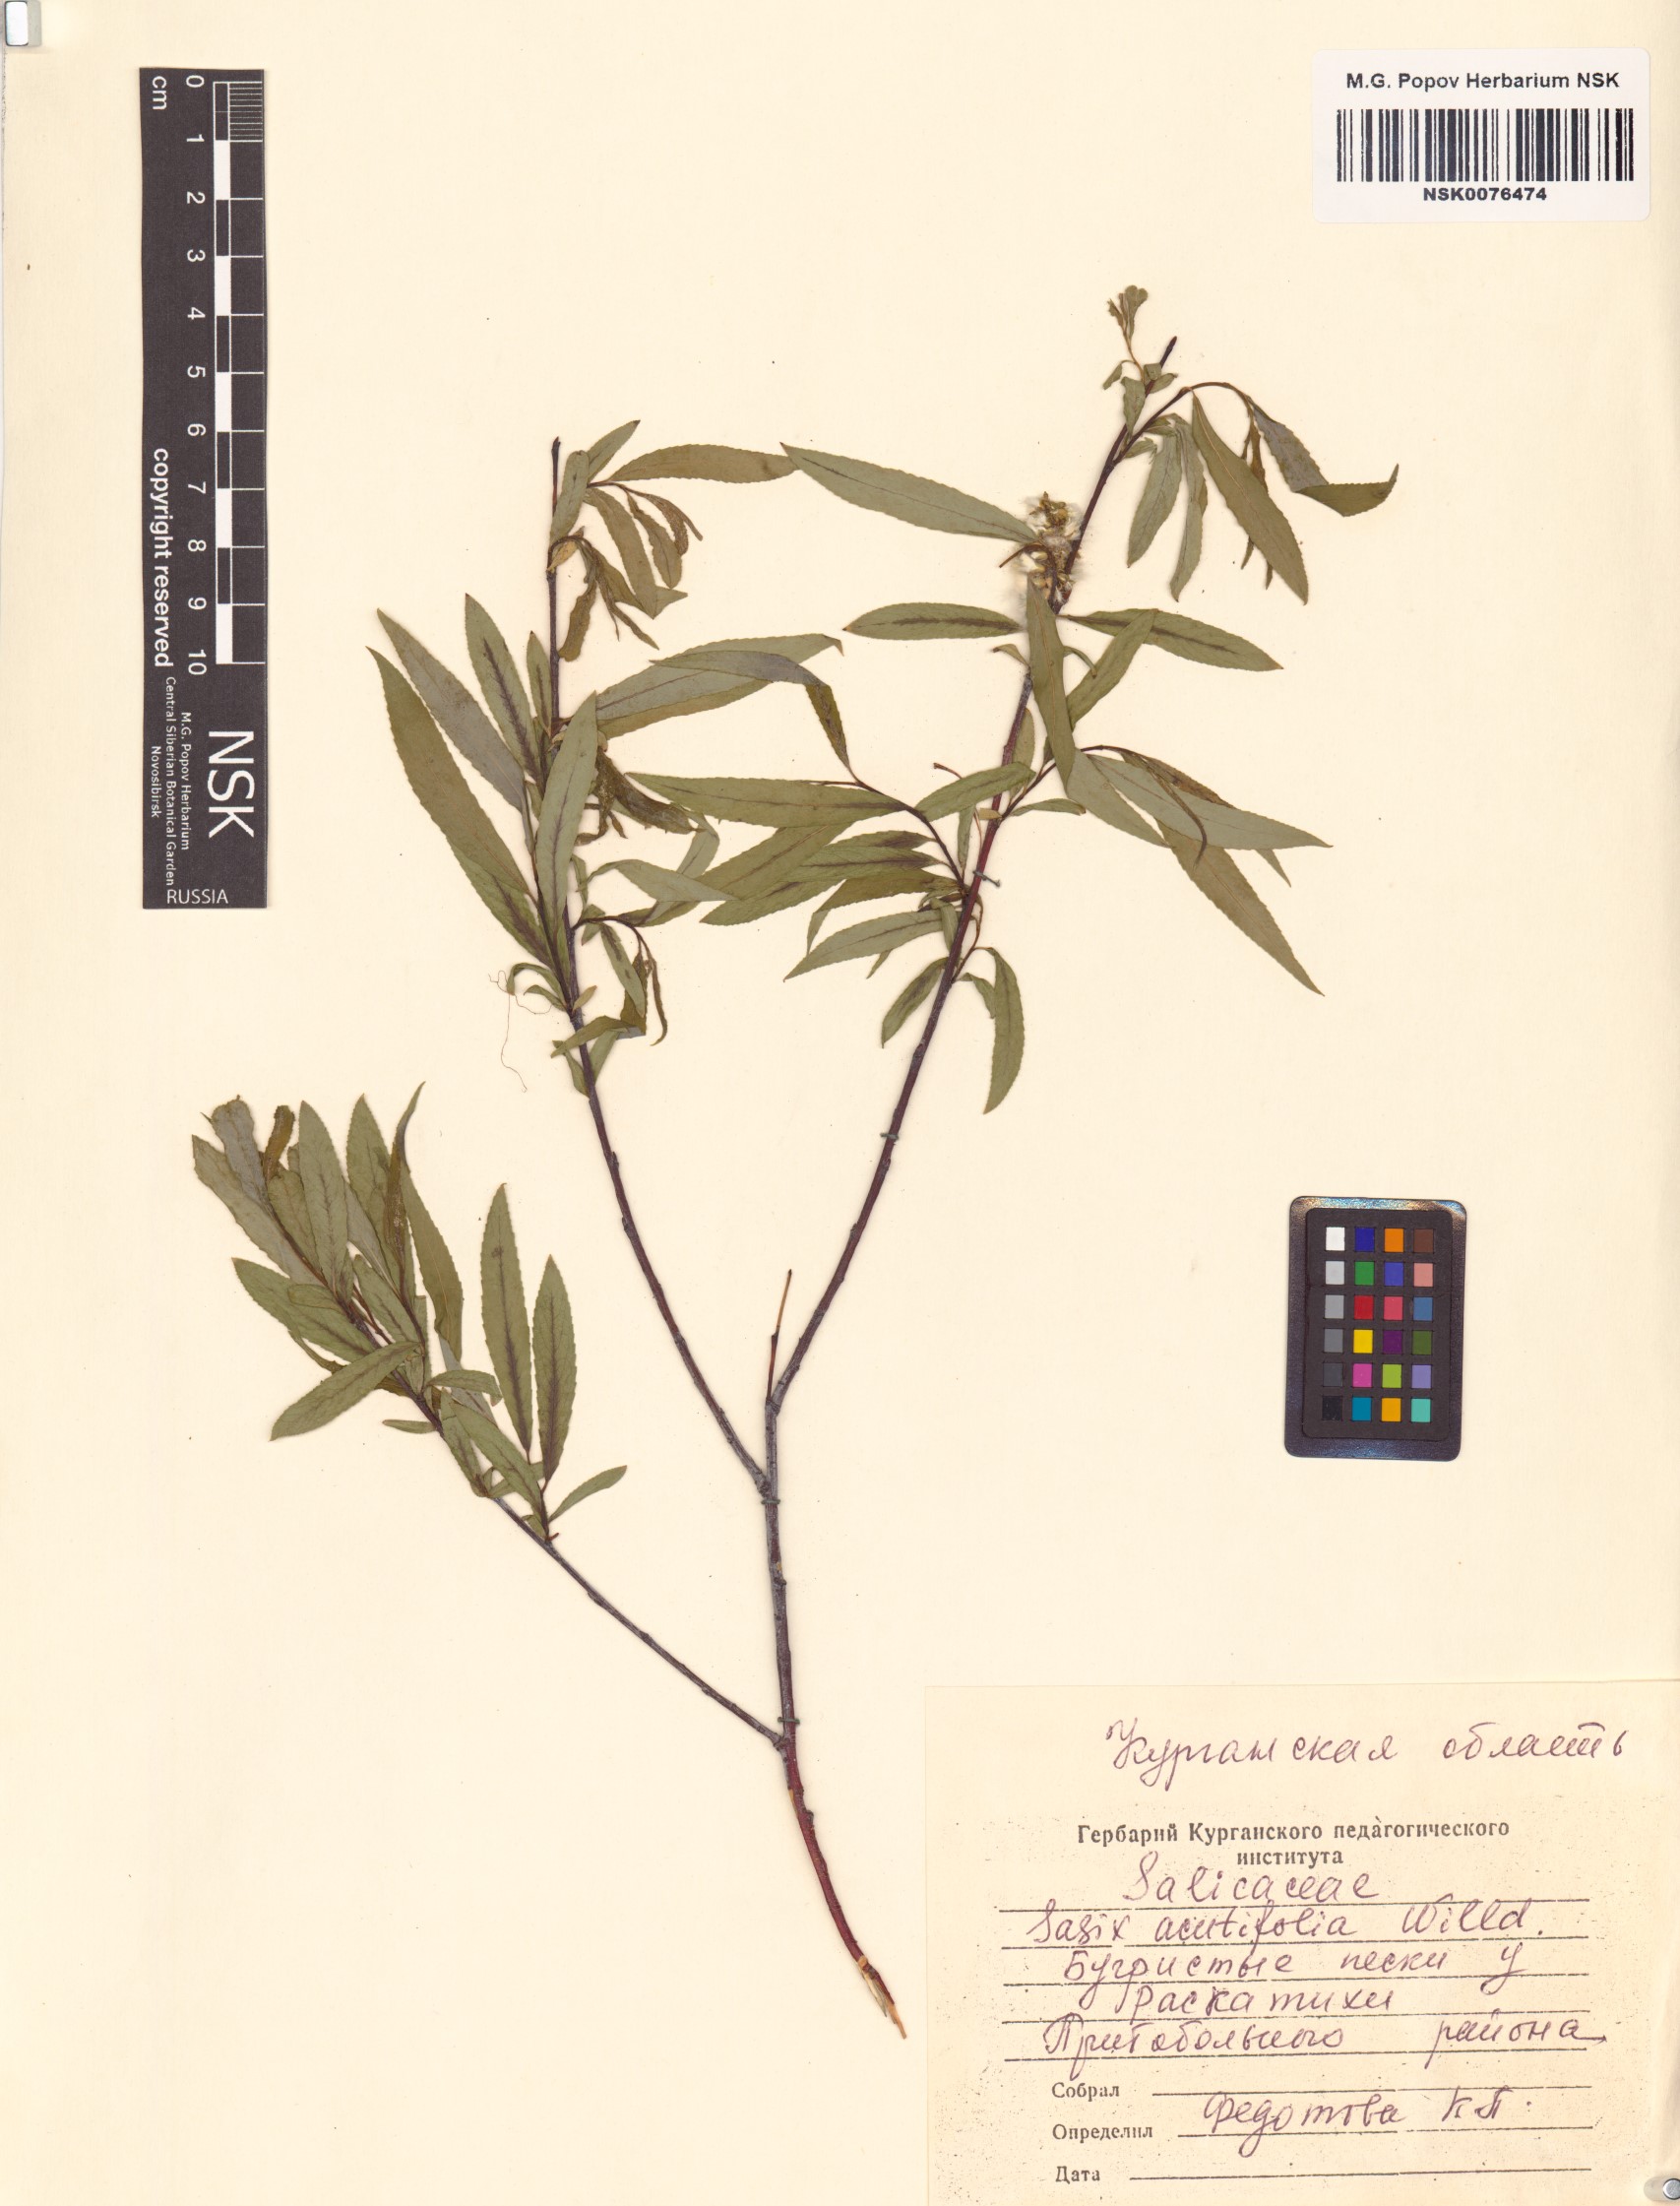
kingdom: Plantae
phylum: Tracheophyta
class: Magnoliopsida
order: Malpighiales
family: Salicaceae
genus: Salix
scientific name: Salix acutifolia
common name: Siberian violet-willow
